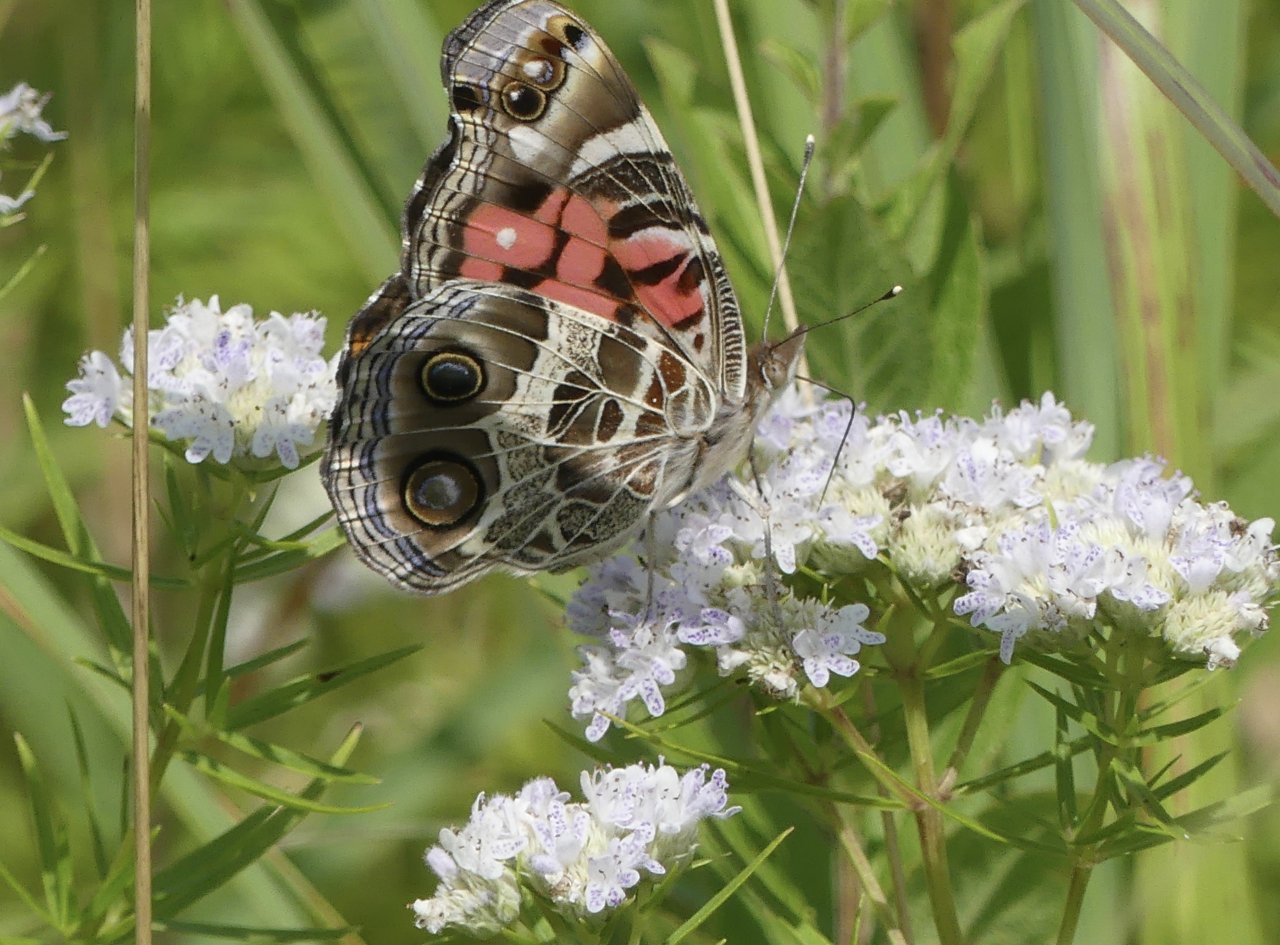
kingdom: Animalia
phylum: Arthropoda
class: Insecta
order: Lepidoptera
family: Nymphalidae
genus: Vanessa
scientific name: Vanessa virginiensis
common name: American Lady
